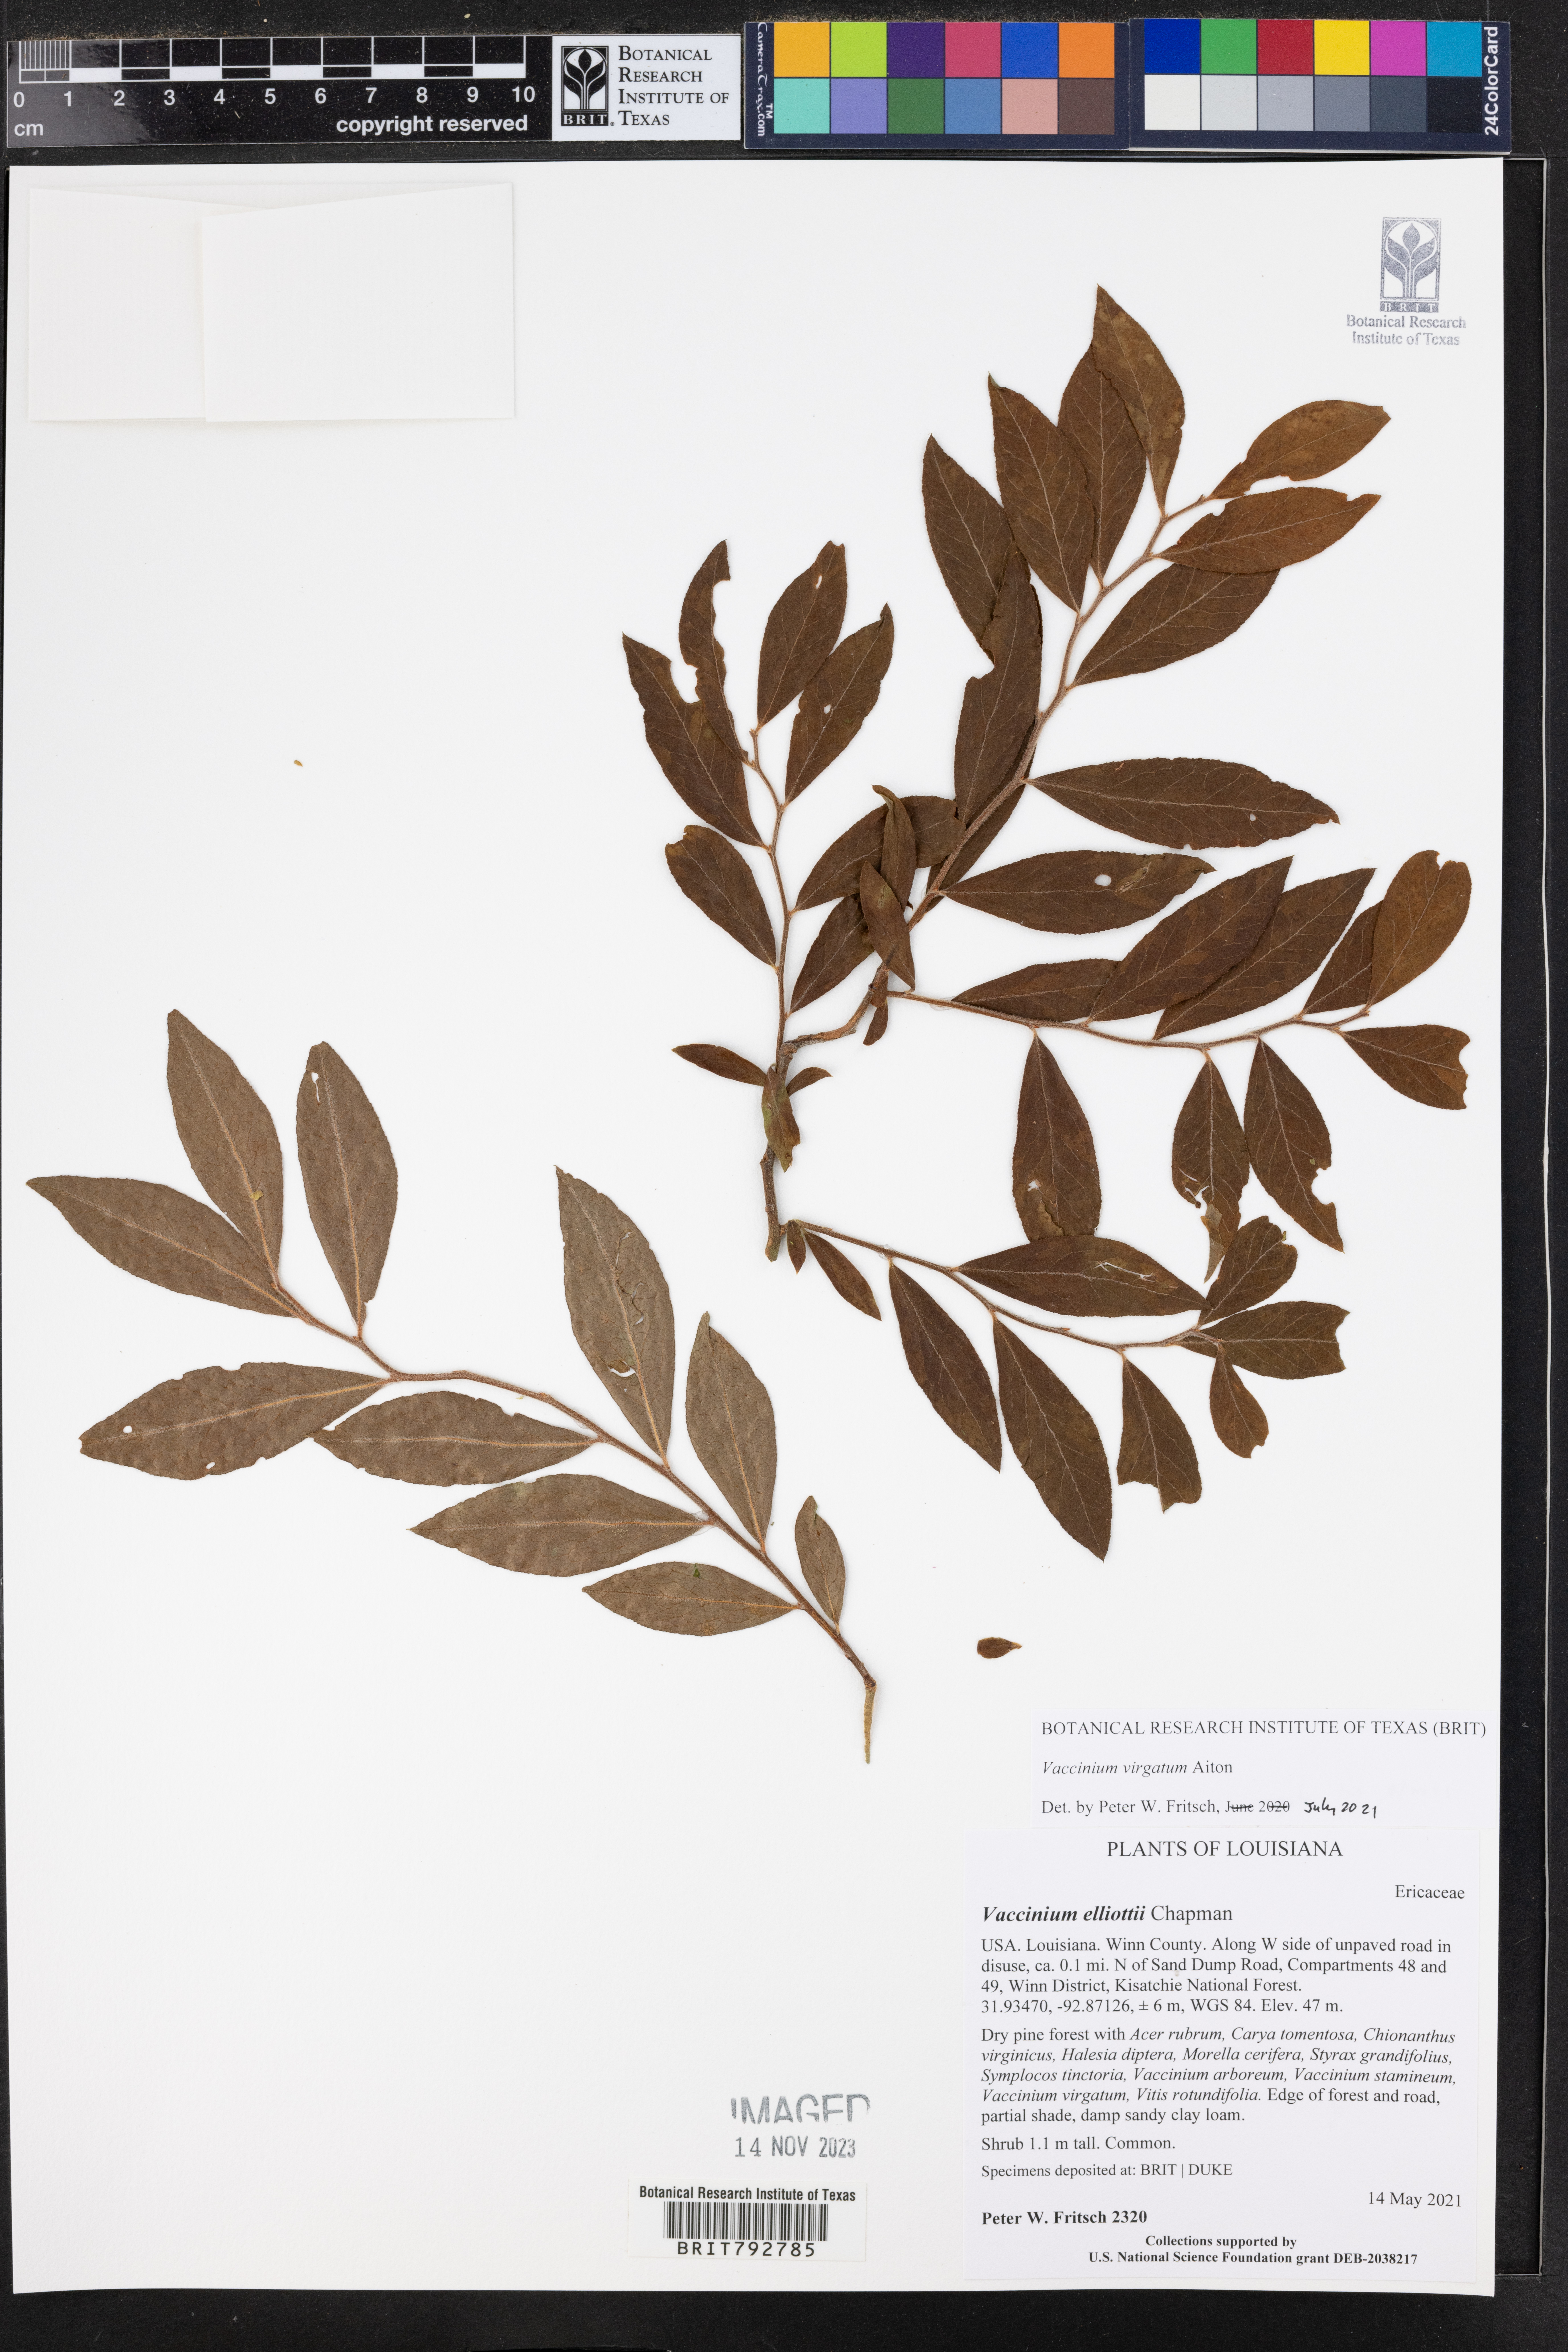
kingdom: Plantae
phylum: Tracheophyta
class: Magnoliopsida
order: Ericales
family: Ericaceae
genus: Vaccinium
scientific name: Vaccinium corymbosum
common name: Blueberry
